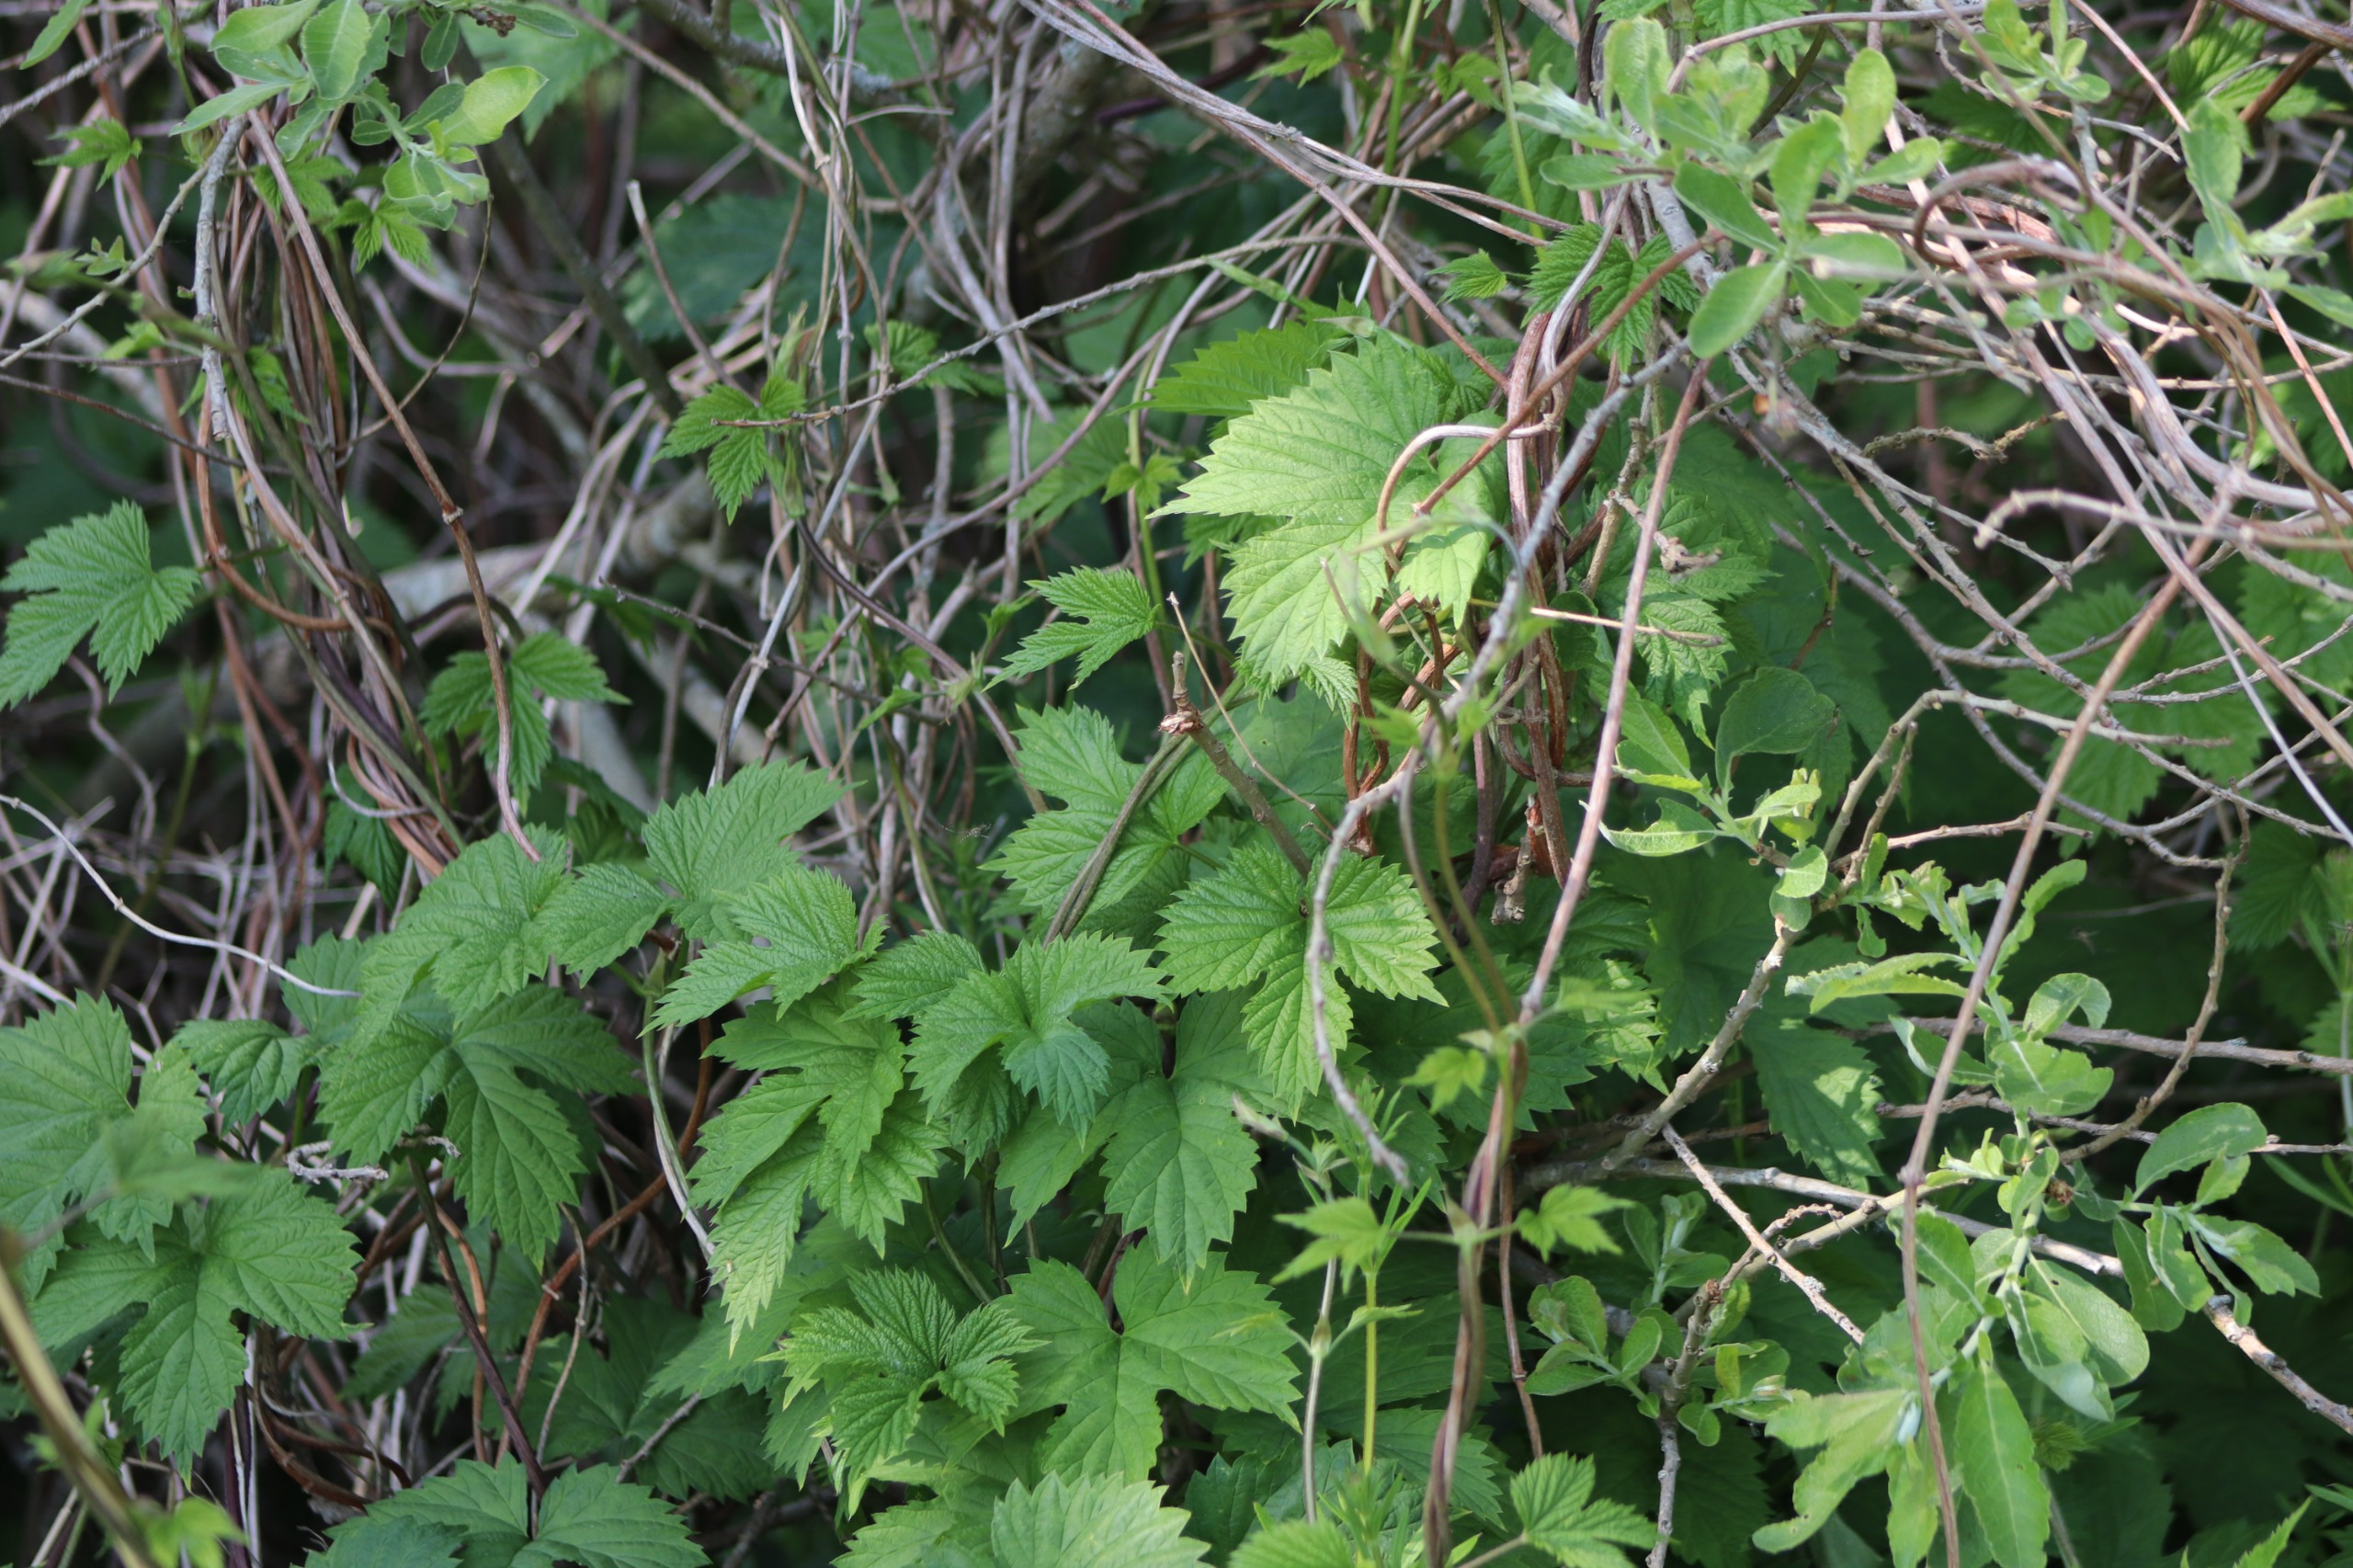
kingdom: Plantae
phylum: Tracheophyta
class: Magnoliopsida
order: Rosales
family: Cannabaceae
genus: Humulus
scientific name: Humulus lupulus
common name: Humle
